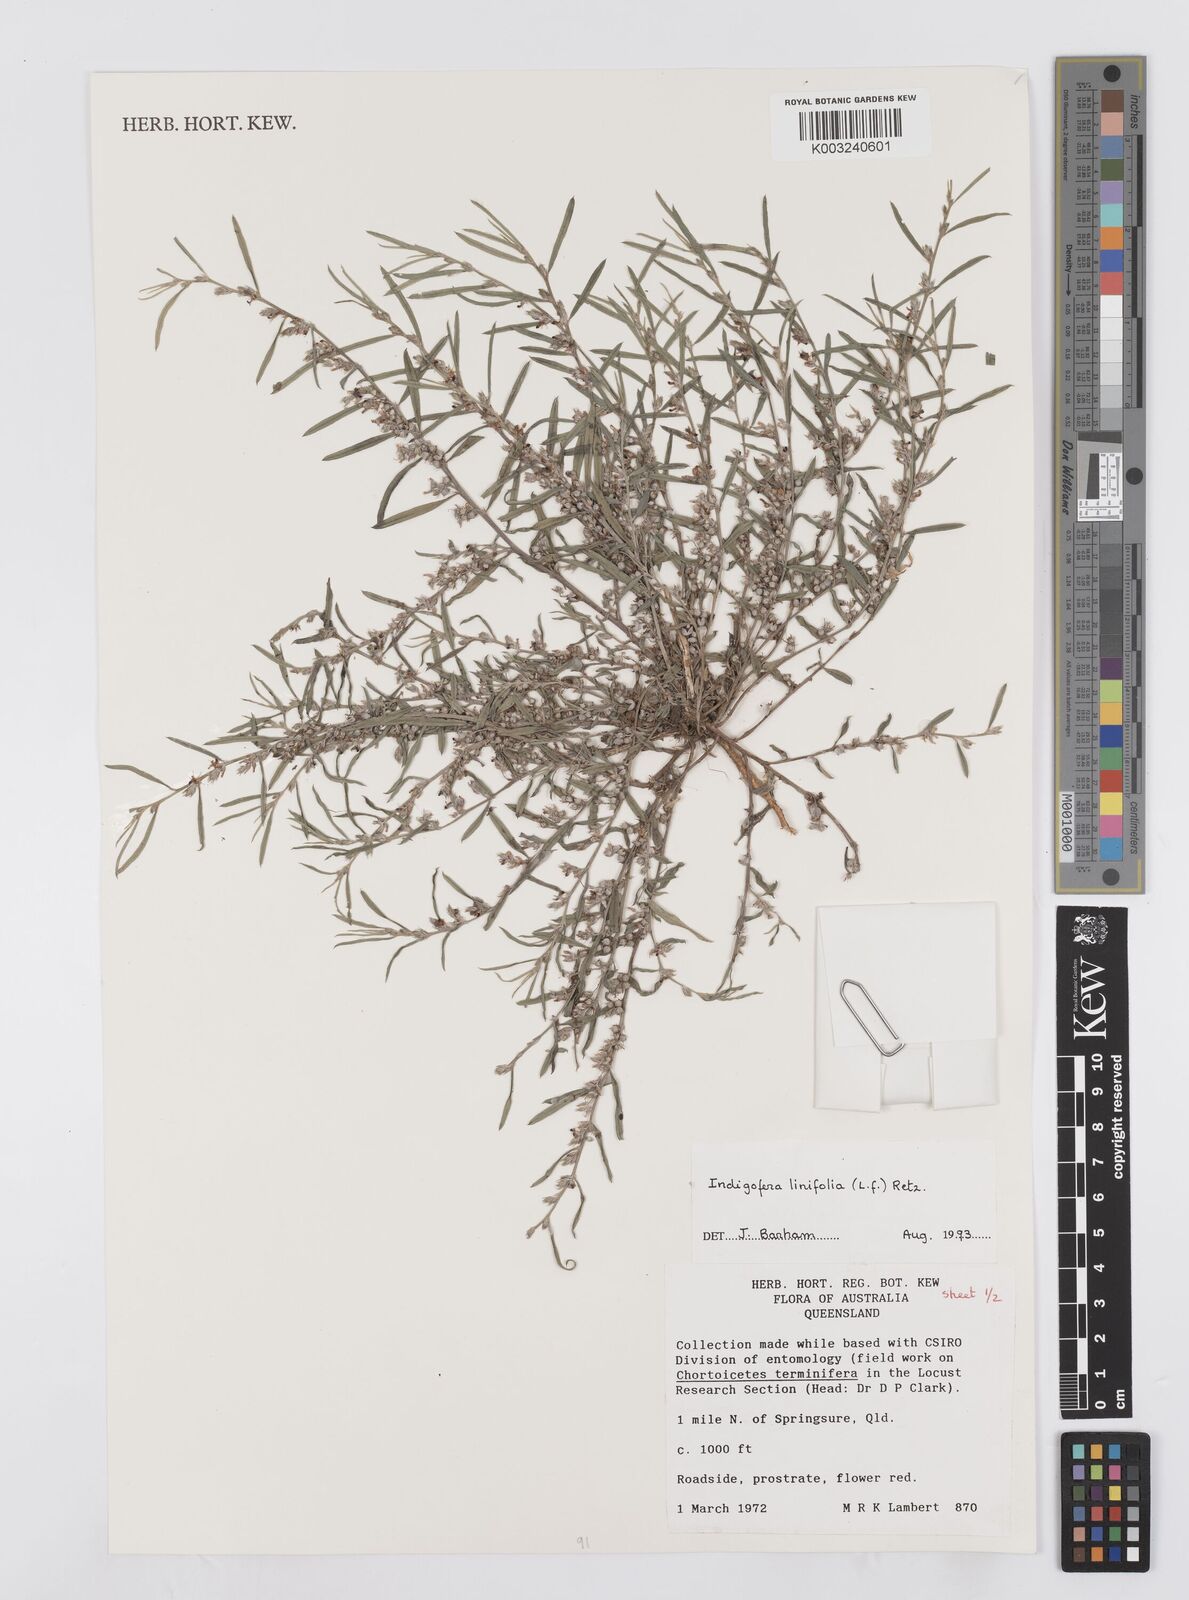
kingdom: Plantae
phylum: Tracheophyta
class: Magnoliopsida
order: Fabales
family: Fabaceae
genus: Indigofera
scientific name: Indigofera linifolia
